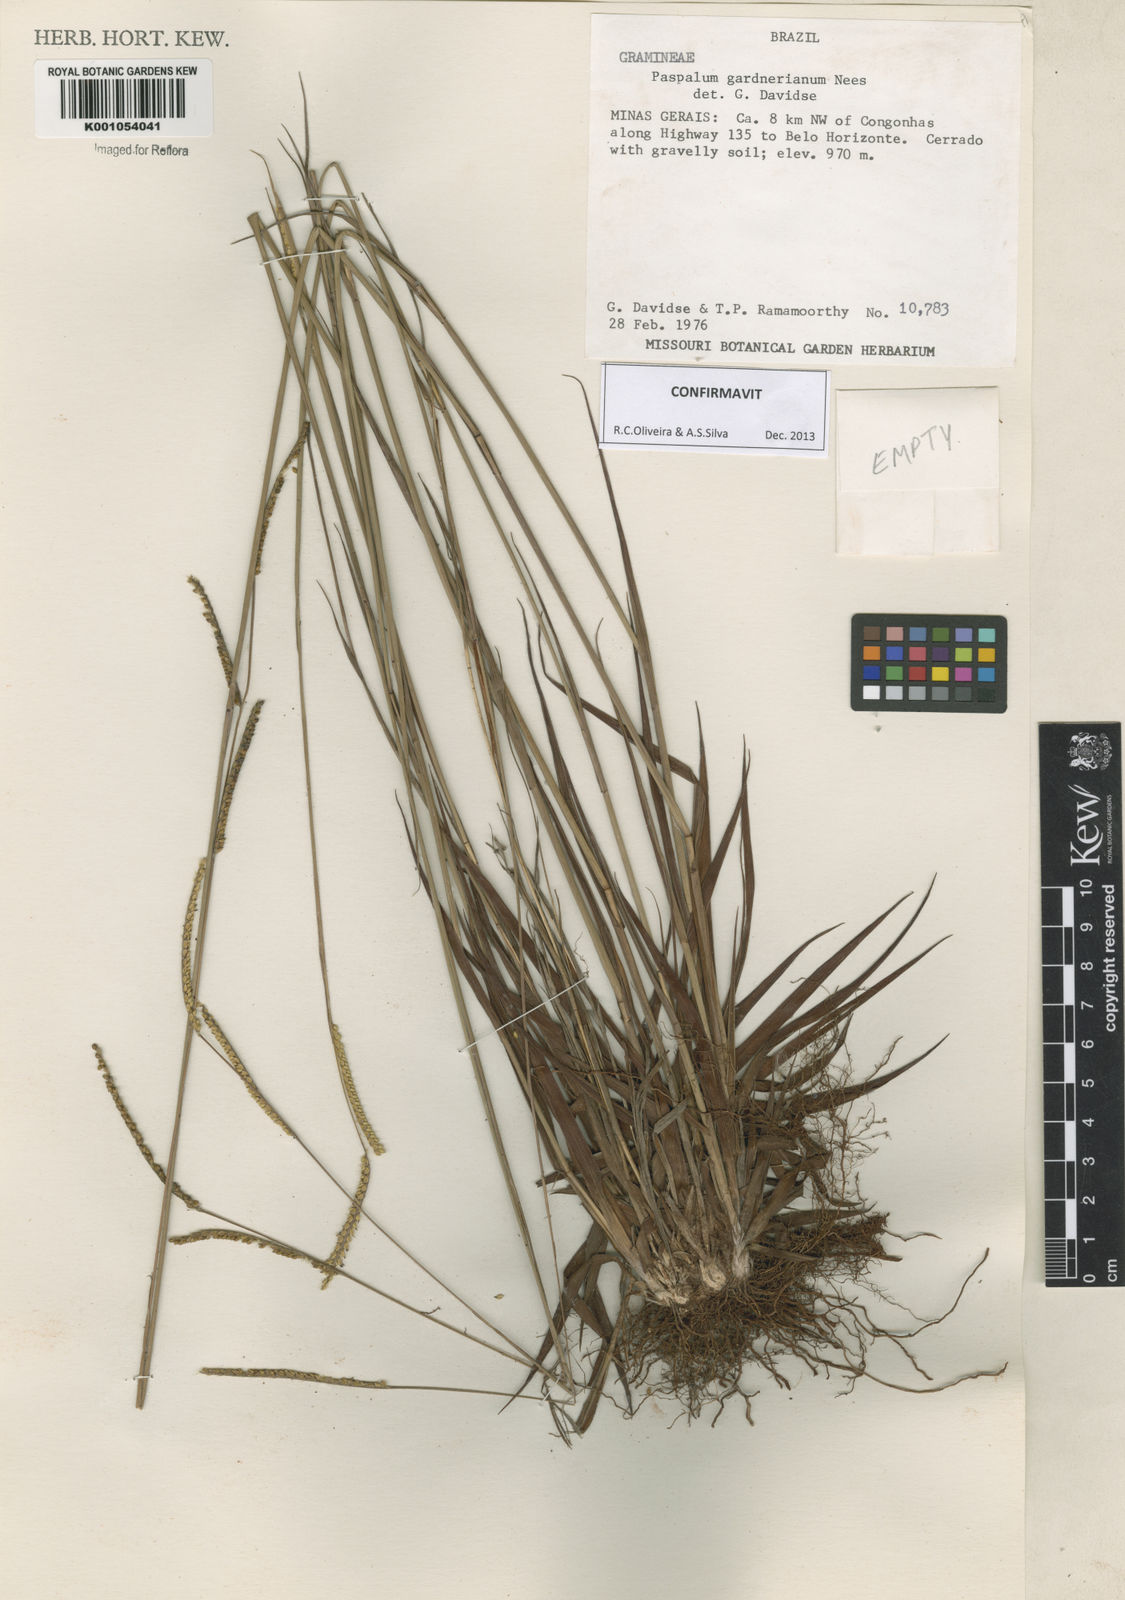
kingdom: Plantae
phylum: Tracheophyta
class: Liliopsida
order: Poales
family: Poaceae
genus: Paspalum
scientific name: Paspalum gardnerianum
